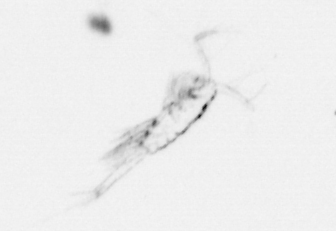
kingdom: Animalia
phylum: Arthropoda
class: Copepoda
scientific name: Copepoda
